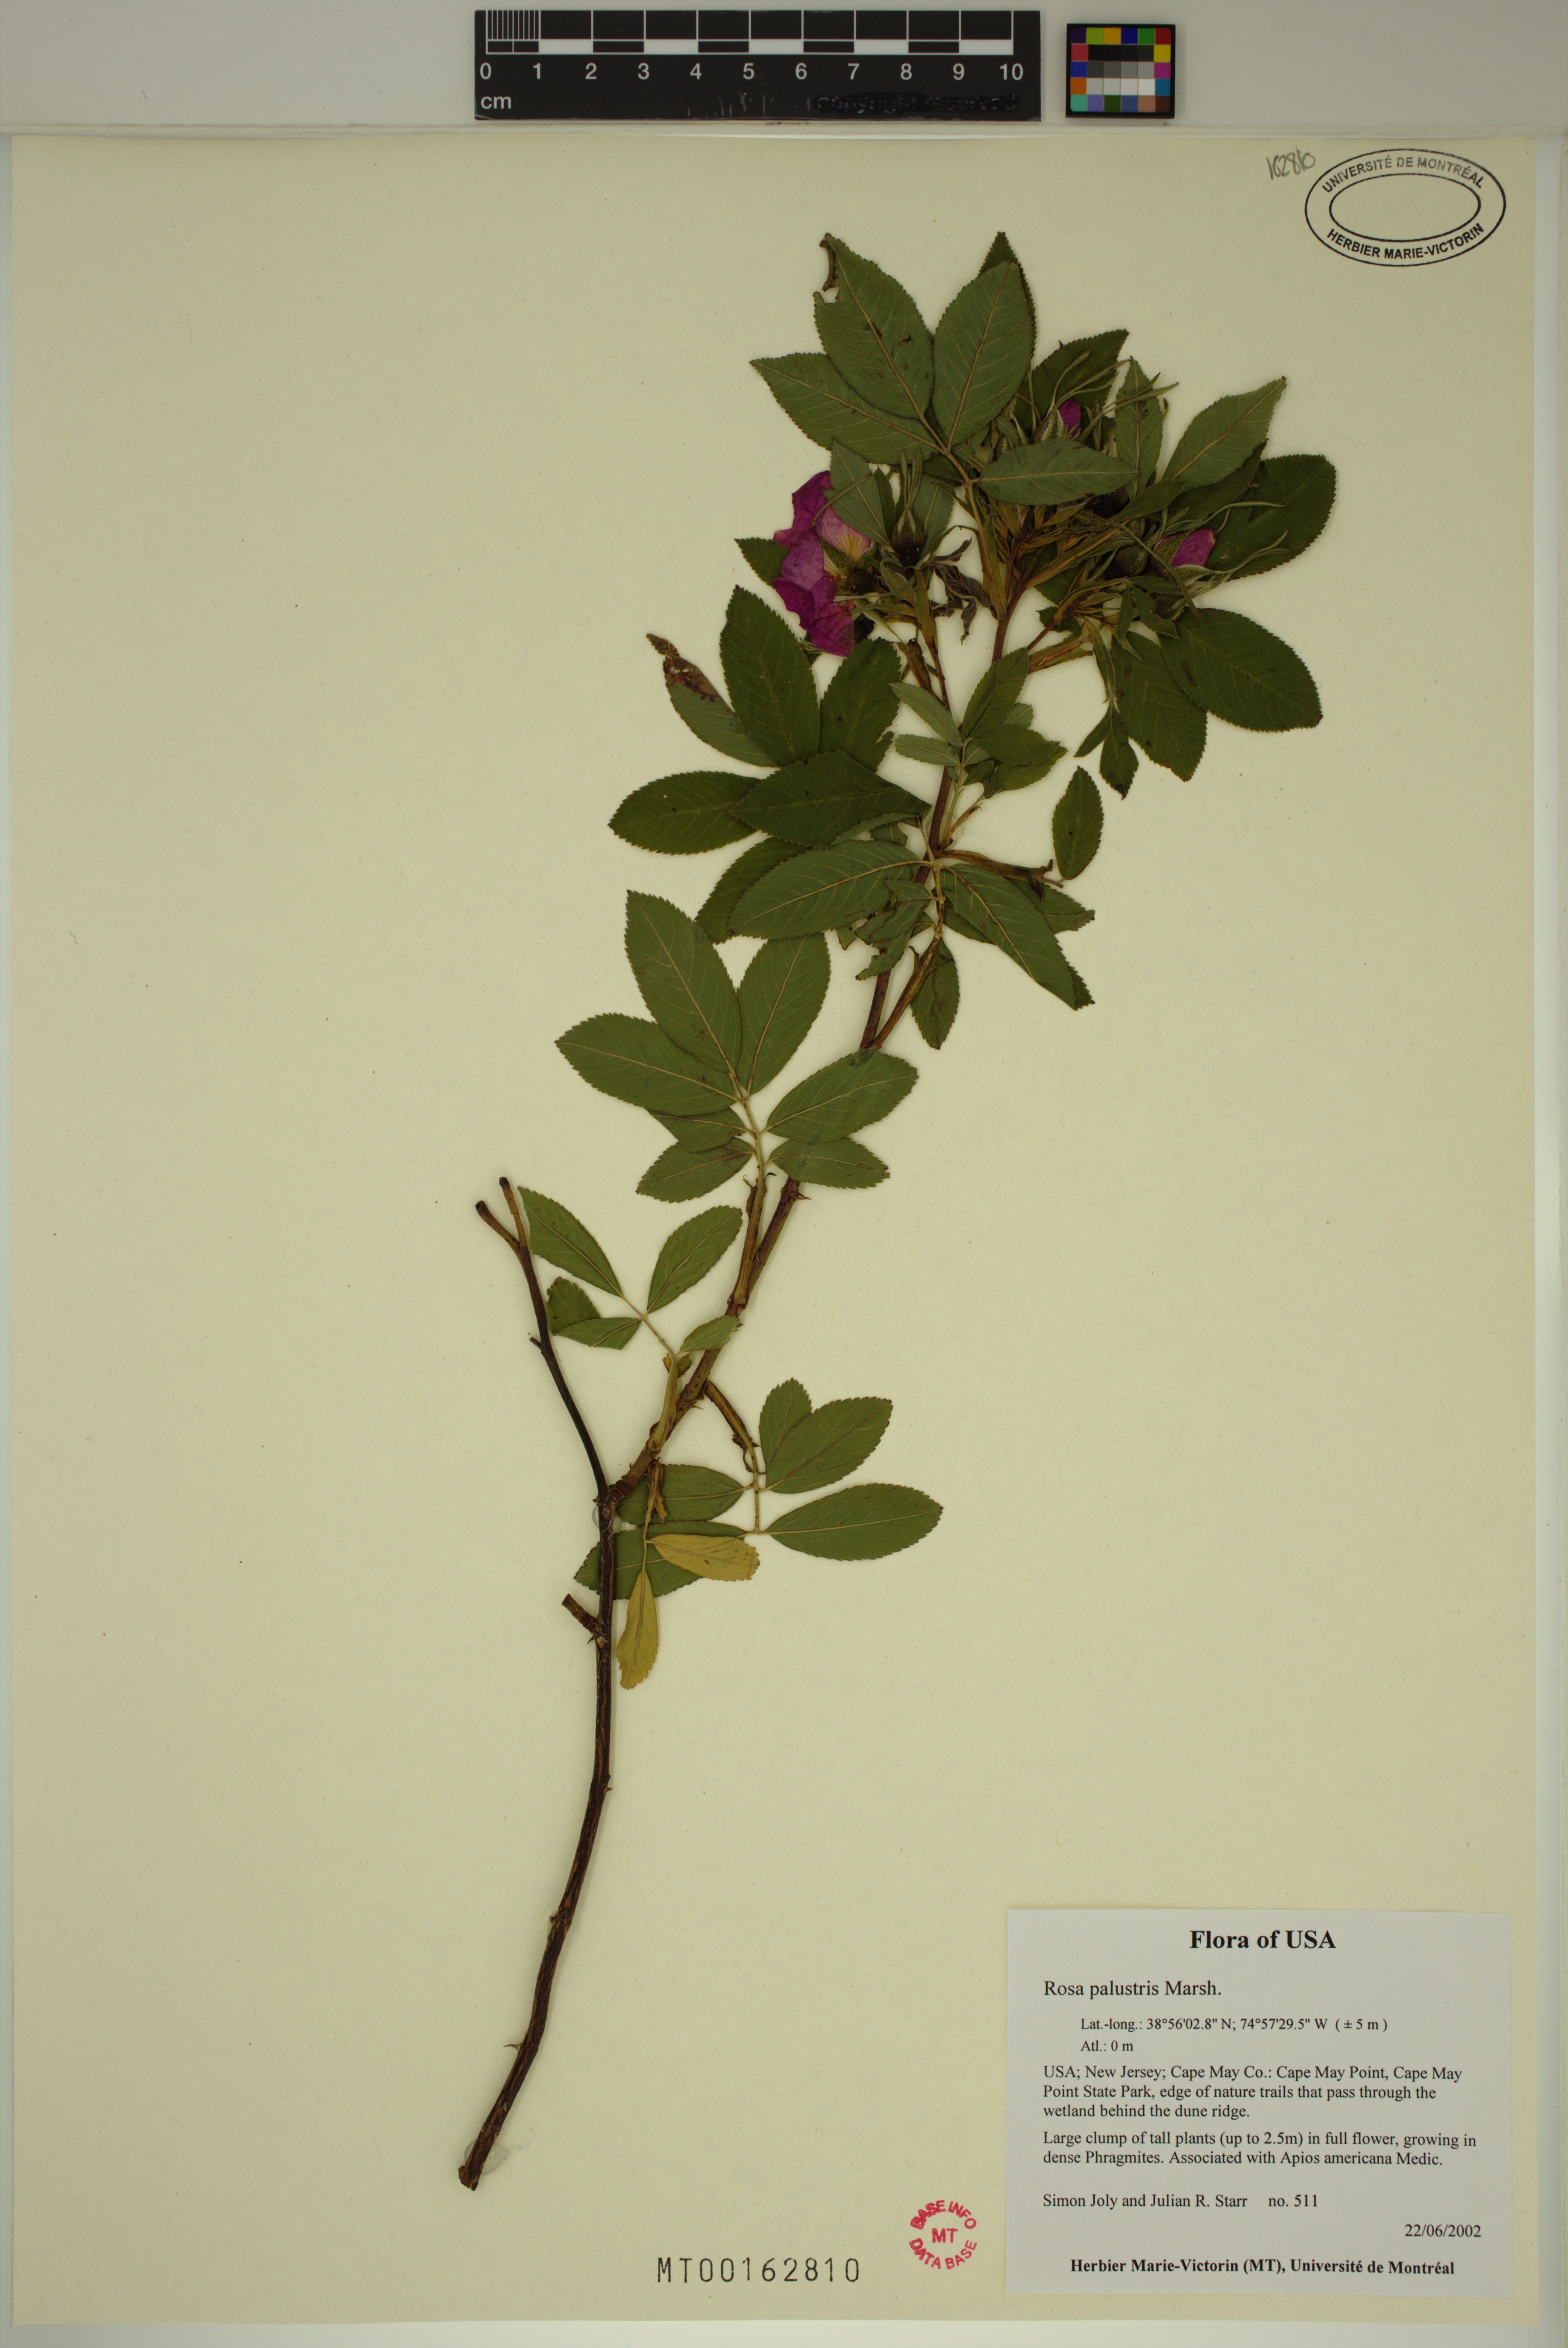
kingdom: Plantae
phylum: Tracheophyta
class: Magnoliopsida
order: Rosales
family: Rosaceae
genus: Rosa
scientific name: Rosa palustris
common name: Swamp rose
